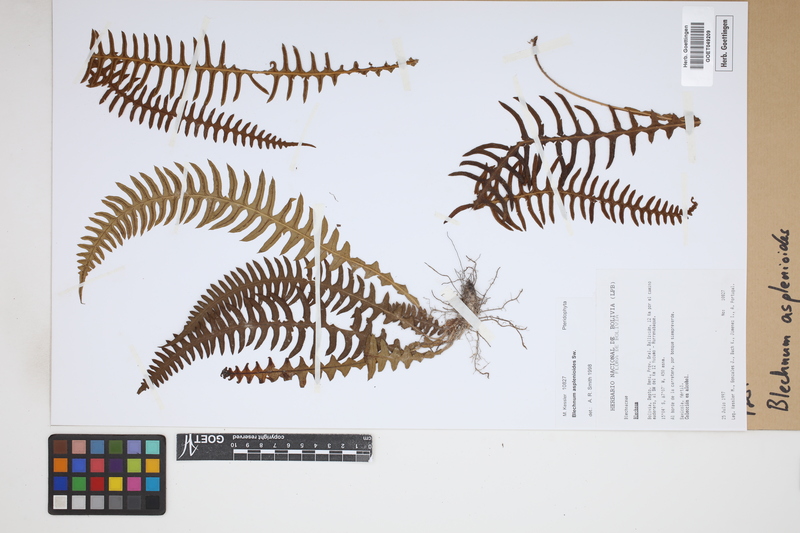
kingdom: Plantae
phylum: Tracheophyta
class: Polypodiopsida
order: Polypodiales
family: Blechnaceae
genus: Blechnum
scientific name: Blechnum asplenioides
